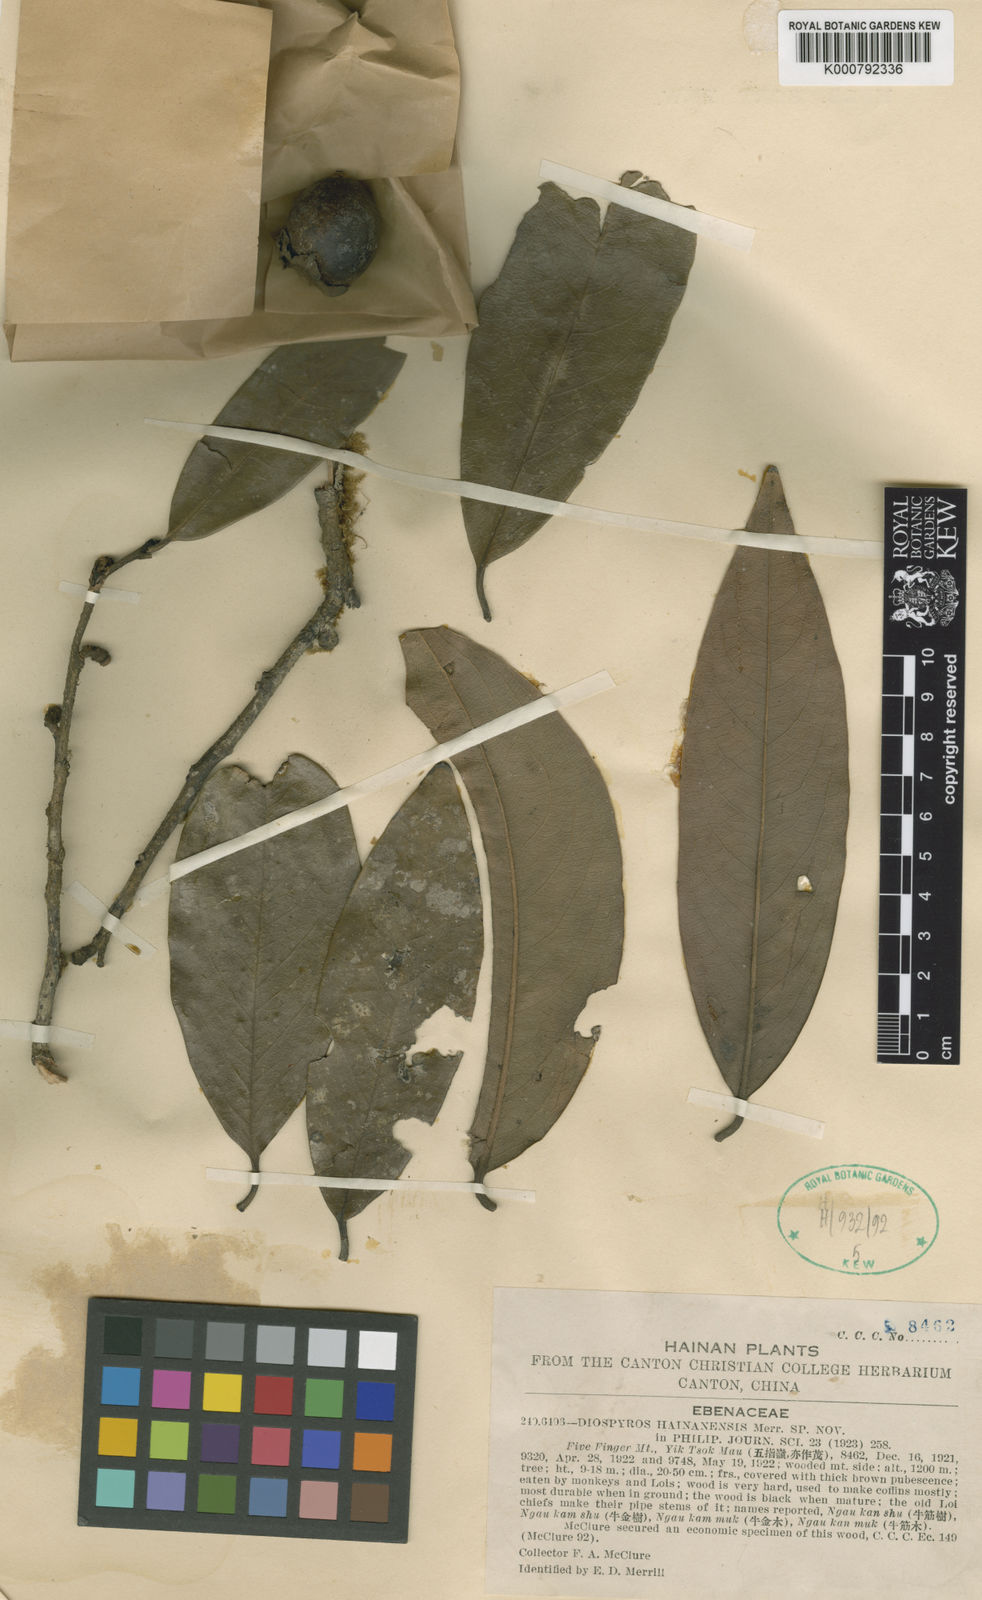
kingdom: Plantae
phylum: Tracheophyta
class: Magnoliopsida
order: Ericales
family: Ebenaceae
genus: Diospyros
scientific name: Diospyros hainanensis
